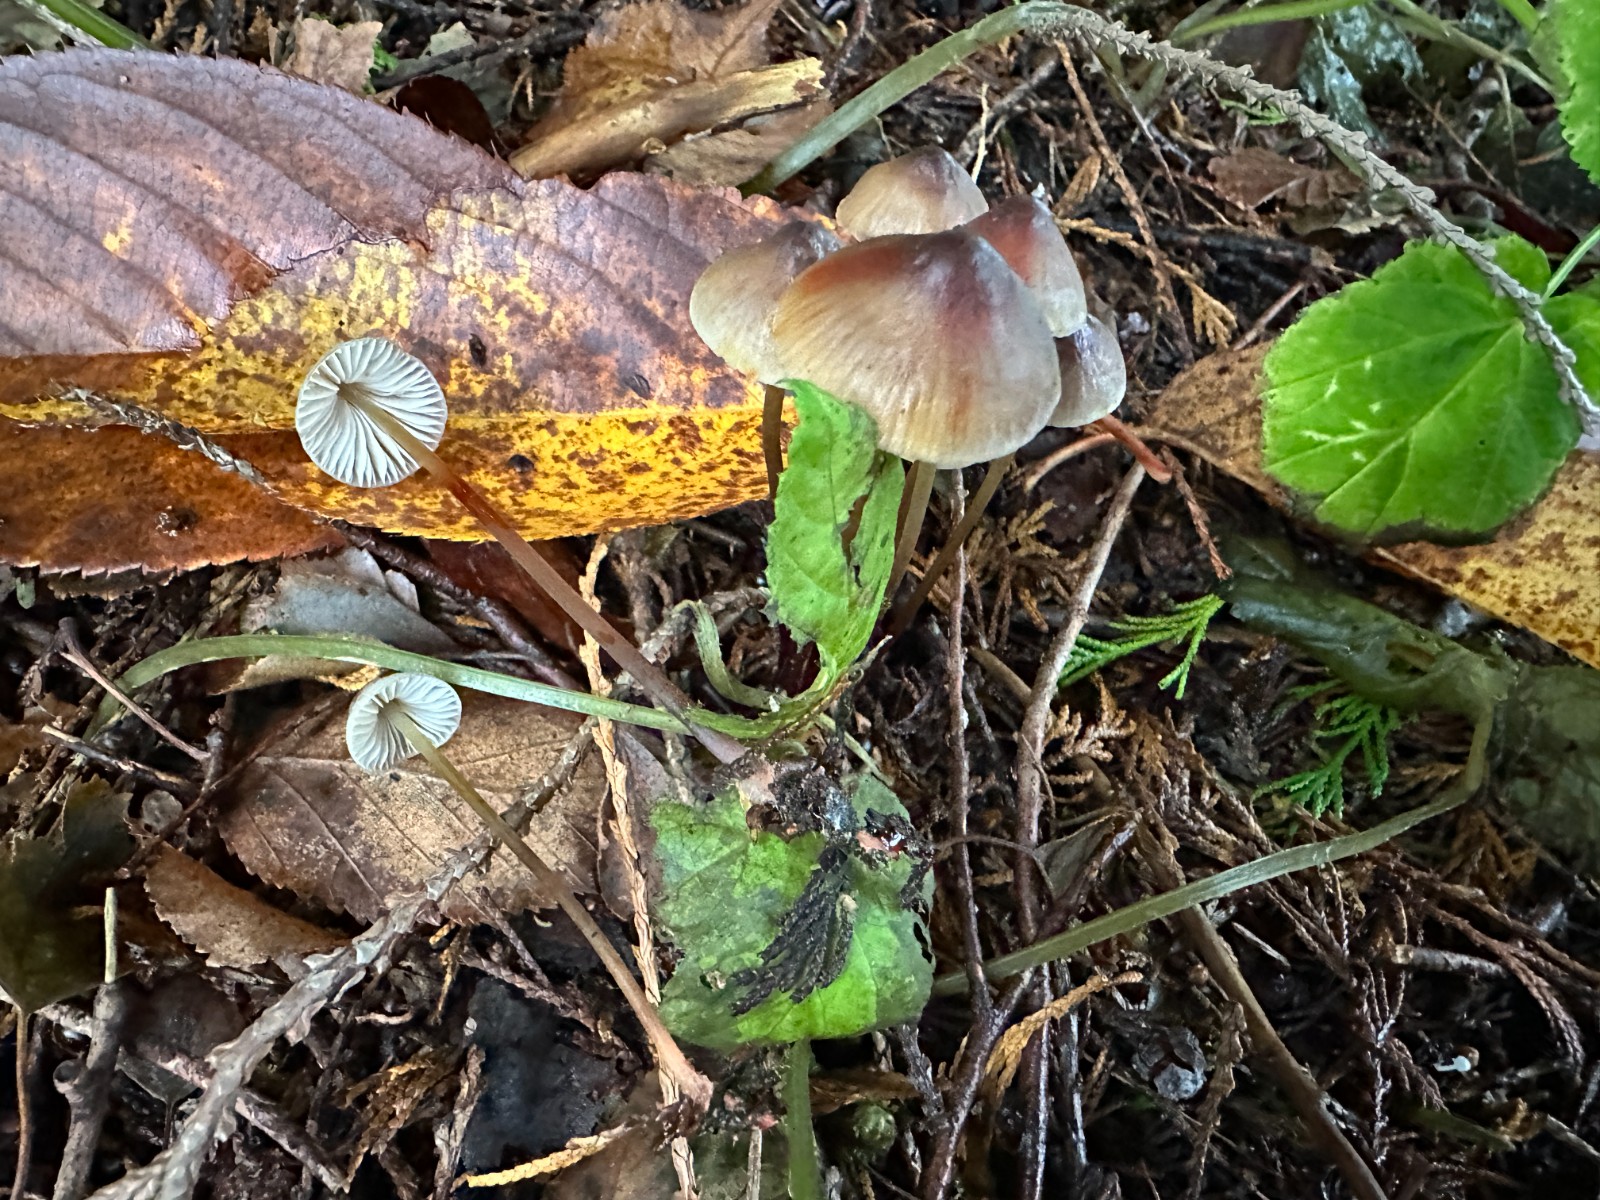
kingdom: Fungi
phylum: Basidiomycota
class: Agaricomycetes
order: Agaricales
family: Mycenaceae
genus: Mycena
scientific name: Mycena crocata
